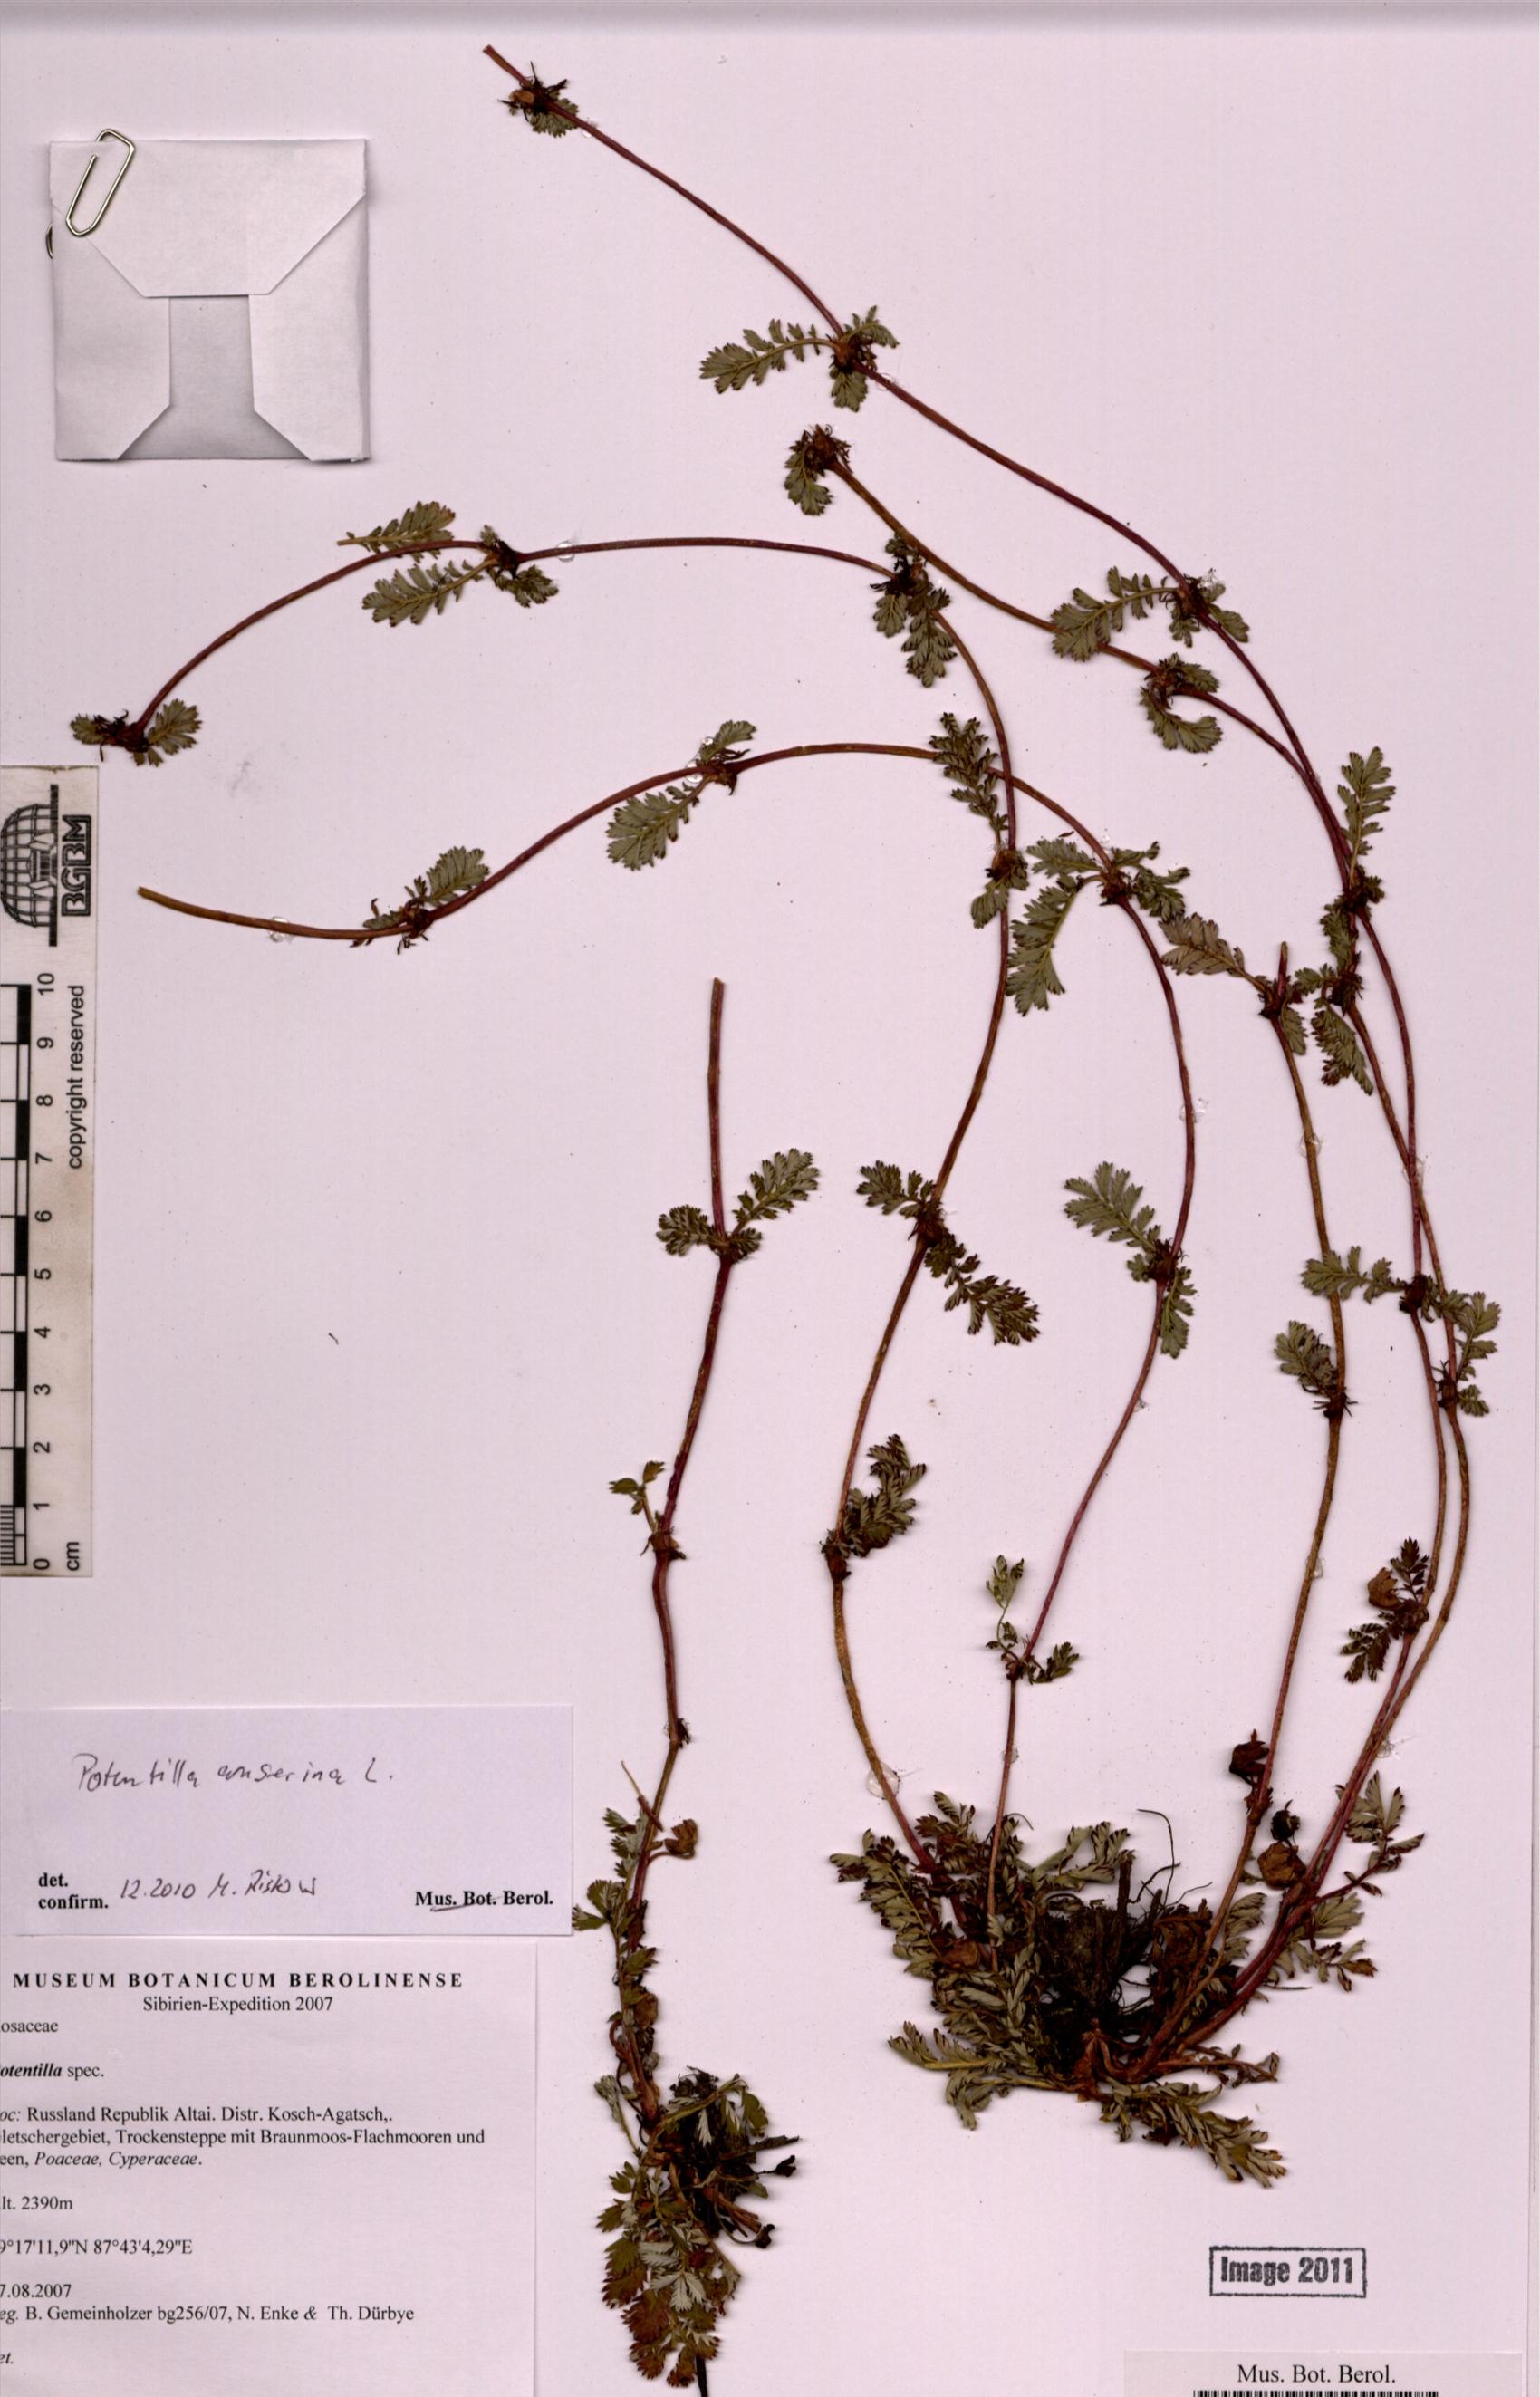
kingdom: Plantae
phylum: Tracheophyta
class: Magnoliopsida
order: Rosales
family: Rosaceae
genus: Argentina
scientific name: Argentina anserina
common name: Common silverweed
